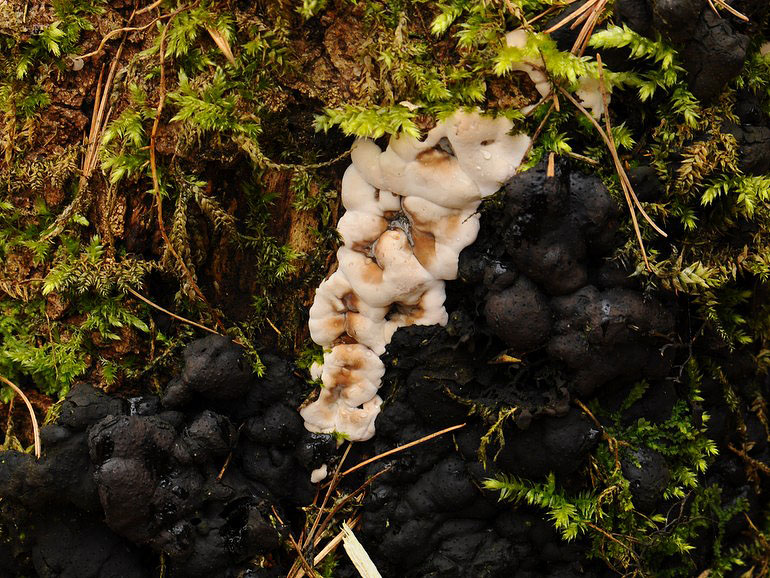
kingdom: Fungi
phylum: Ascomycota
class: Sordariomycetes
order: Xylariales
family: Xylariaceae
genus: Kretzschmaria
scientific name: Kretzschmaria deusta
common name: stor kulsvamp
